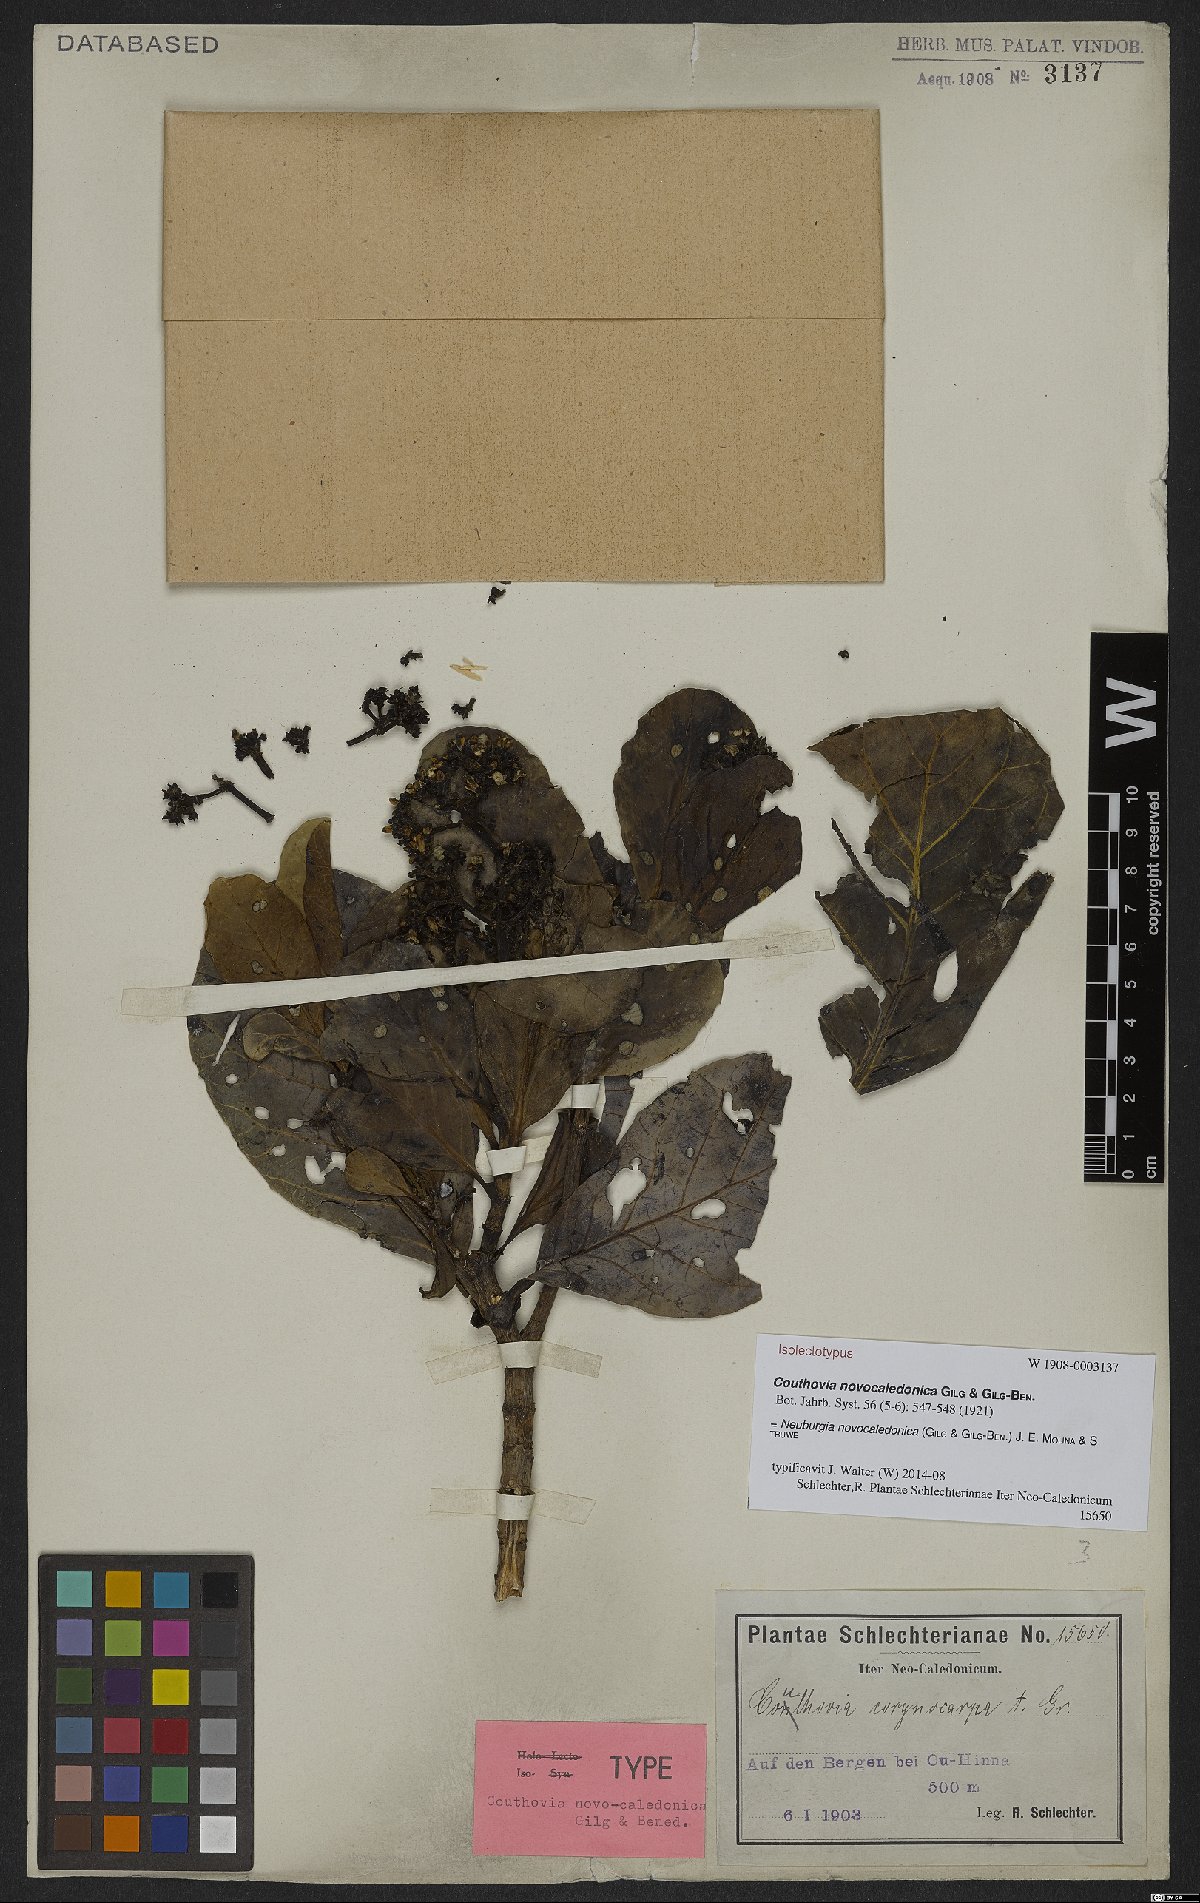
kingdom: Plantae
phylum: Tracheophyta
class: Magnoliopsida
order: Gentianales
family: Loganiaceae
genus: Neuburgia
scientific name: Neuburgia novocaledonica
